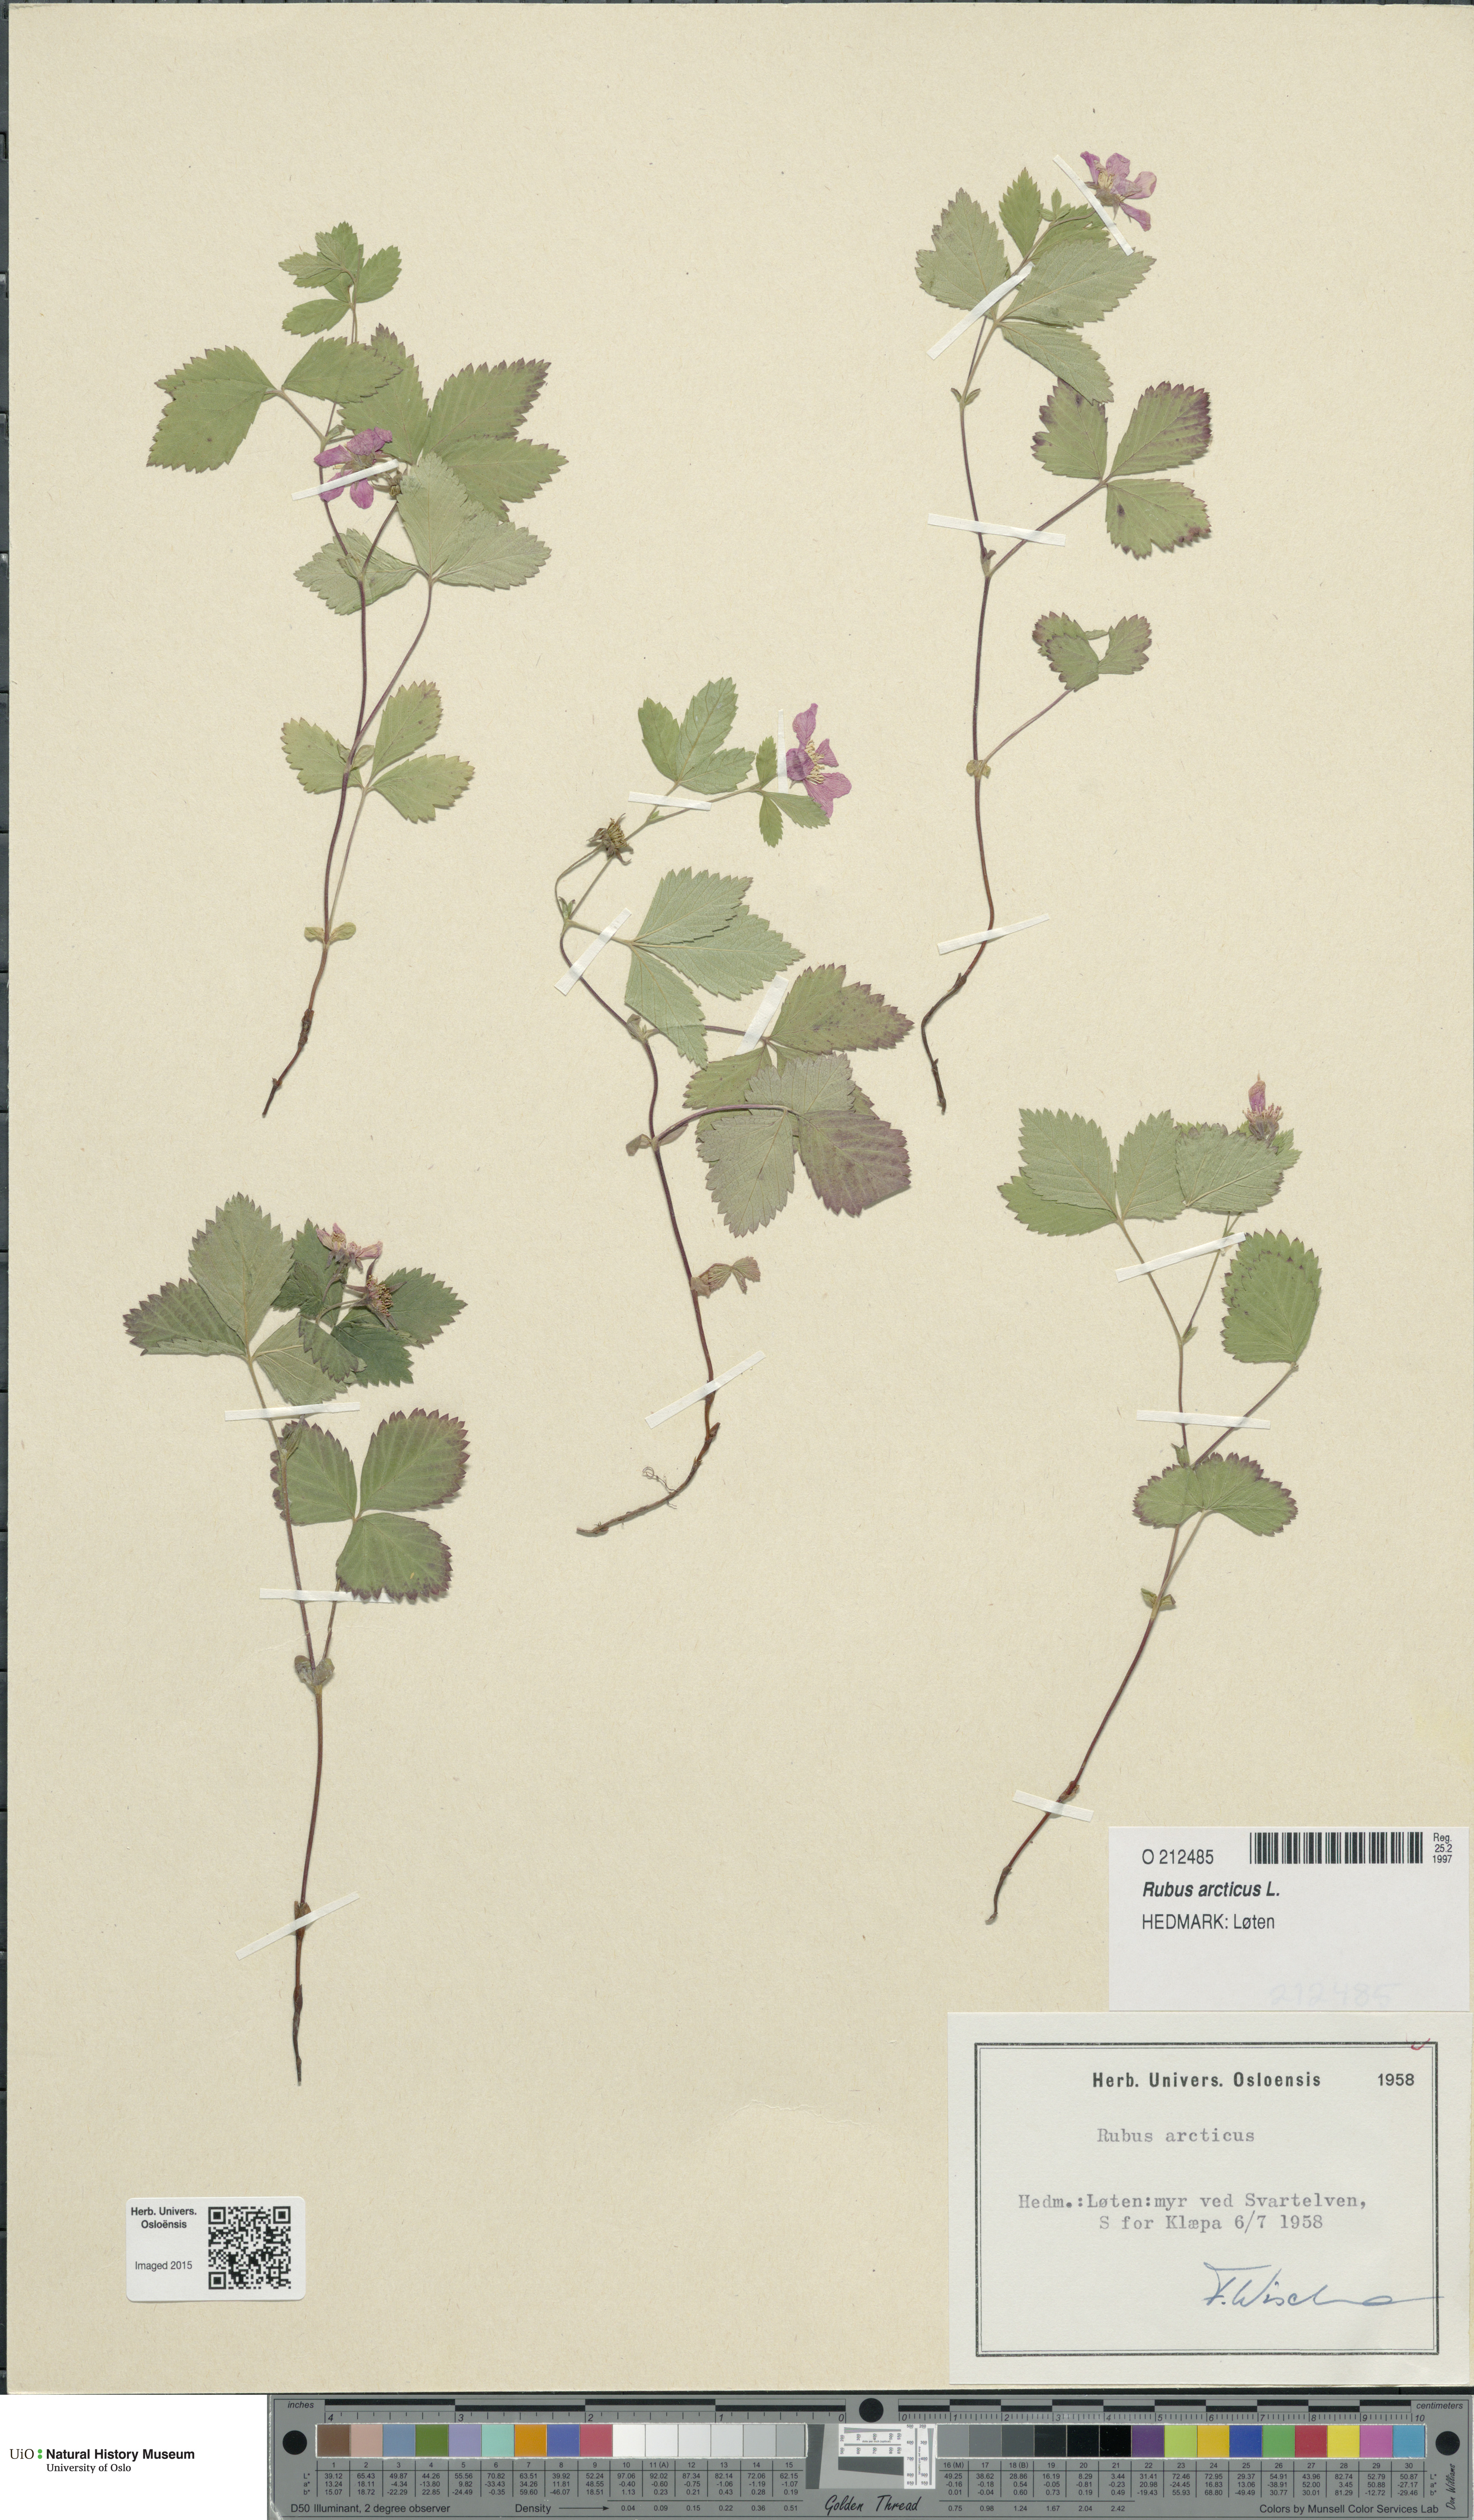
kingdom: Plantae
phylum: Tracheophyta
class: Magnoliopsida
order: Rosales
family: Rosaceae
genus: Rubus
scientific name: Rubus arcticus
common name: Arctic bramble
